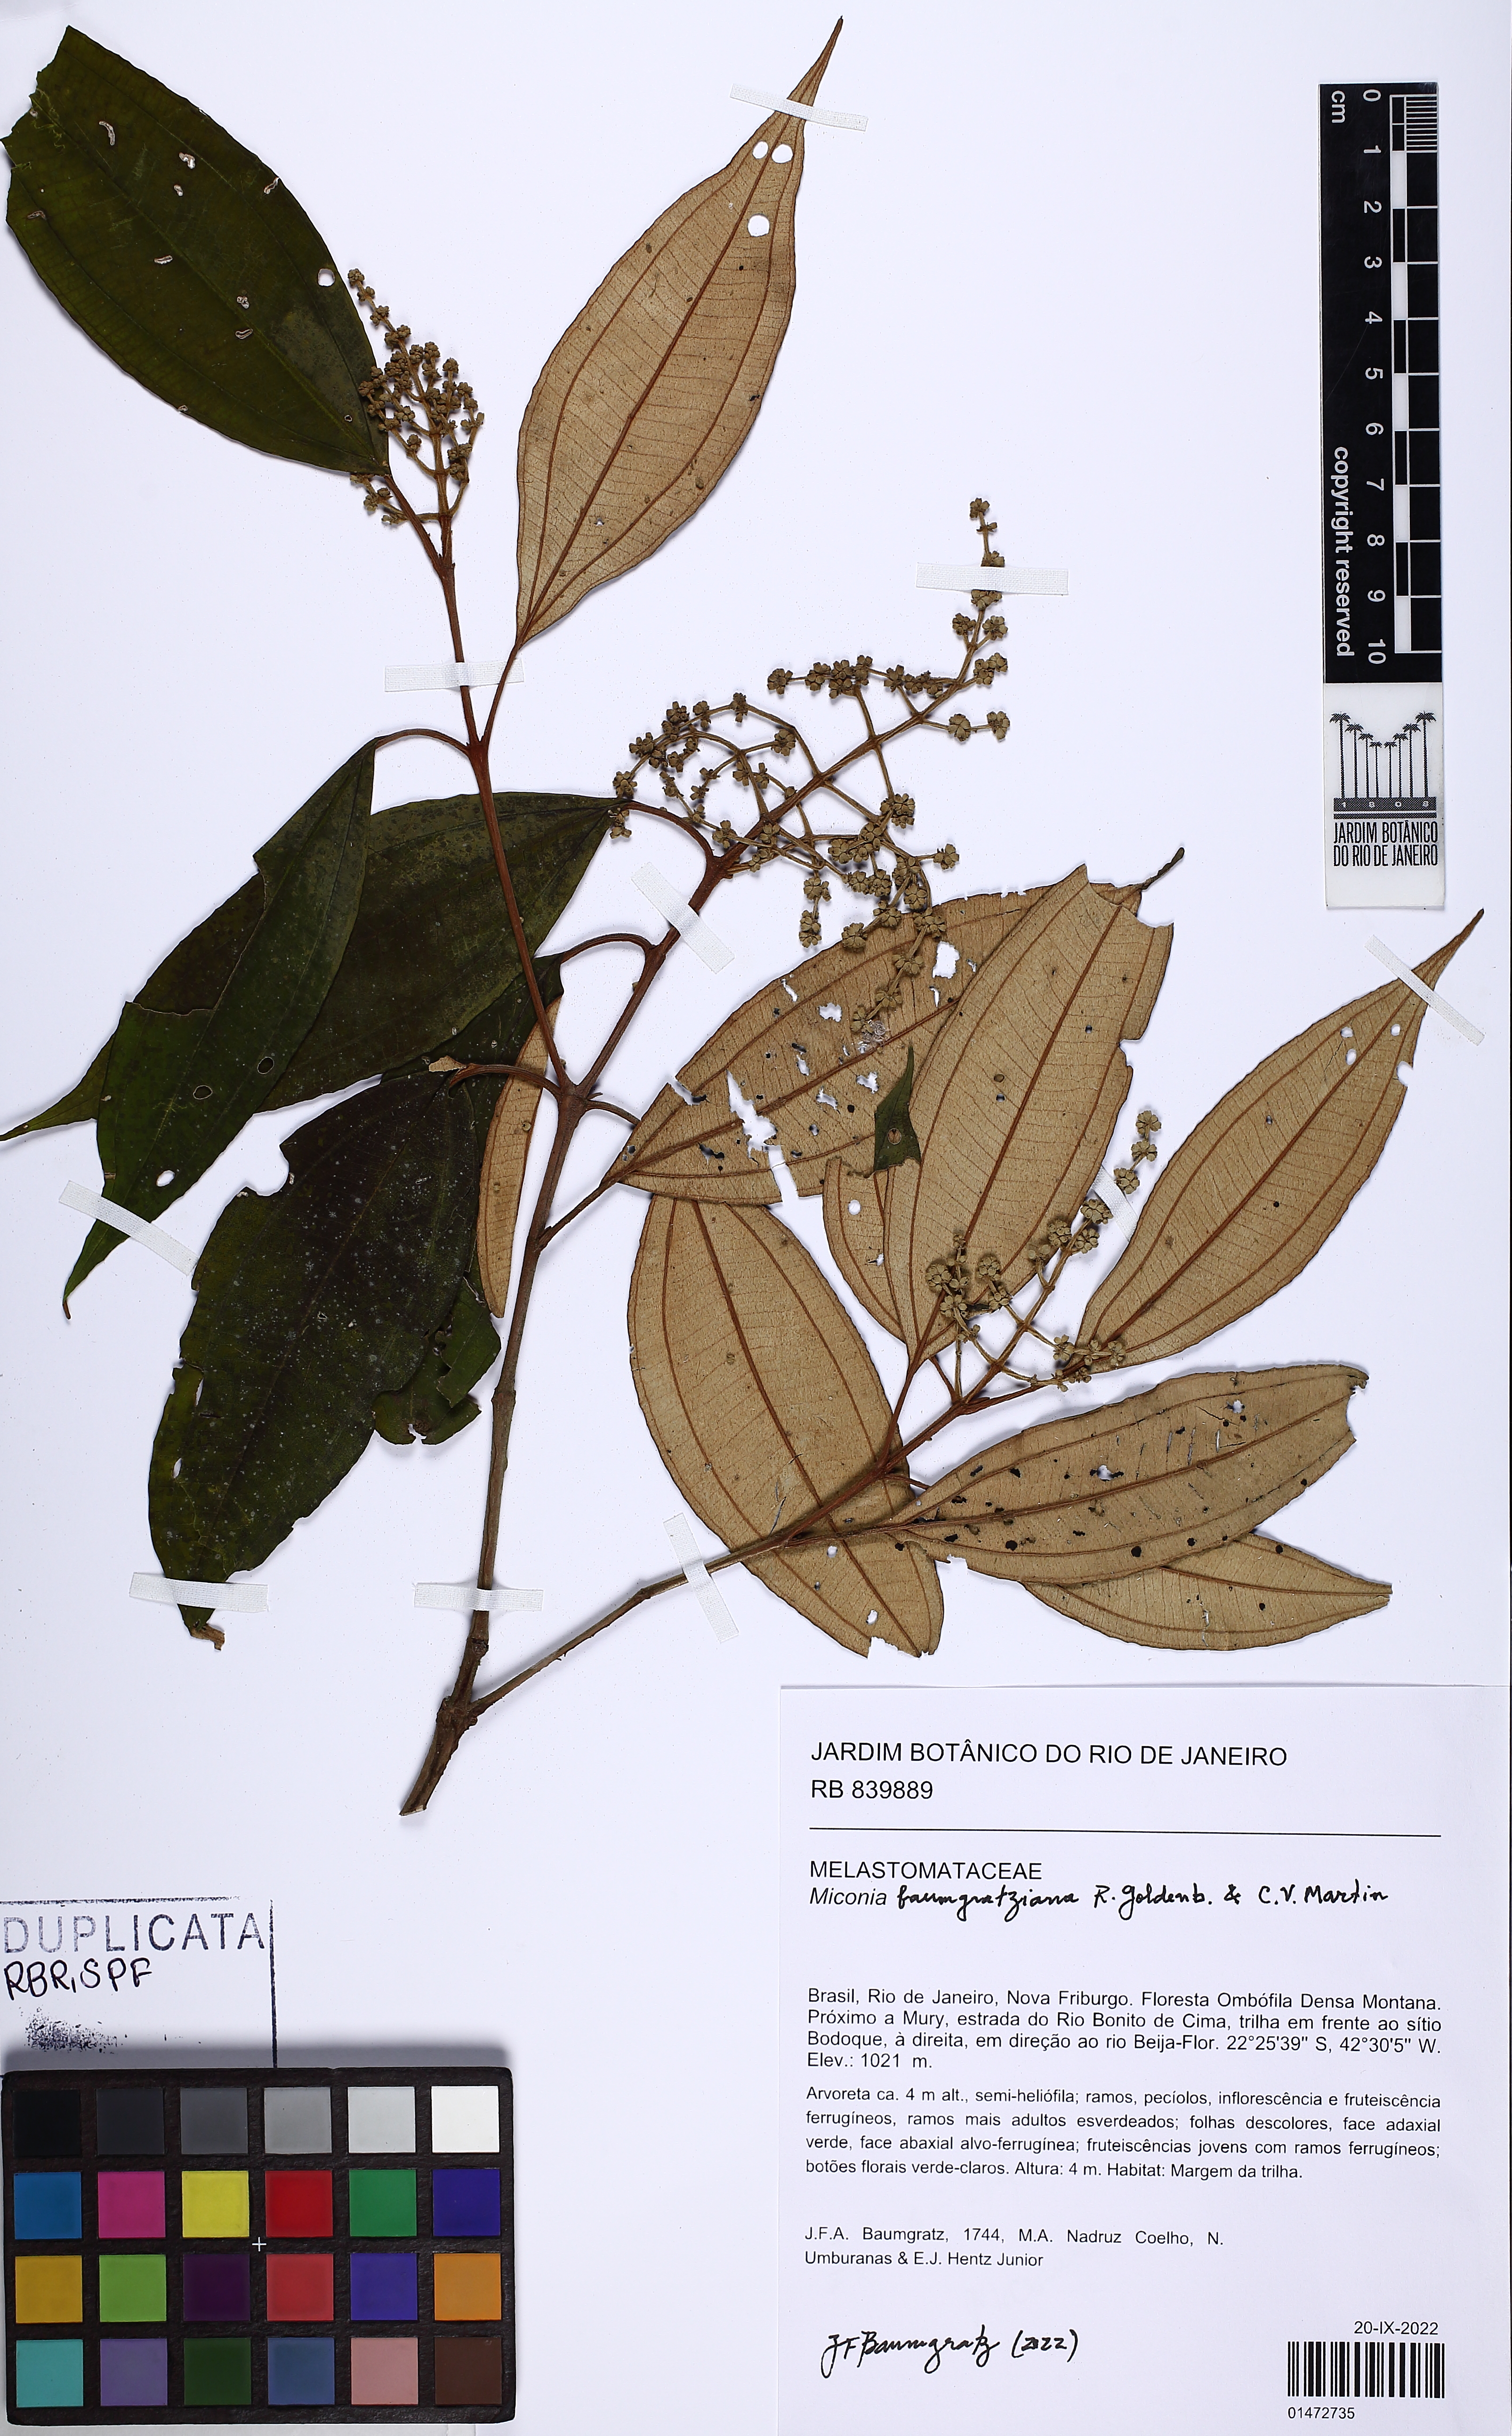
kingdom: Plantae
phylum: Tracheophyta
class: Magnoliopsida
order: Myrtales
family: Melastomataceae
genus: Miconia
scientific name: Miconia baumgratziana
